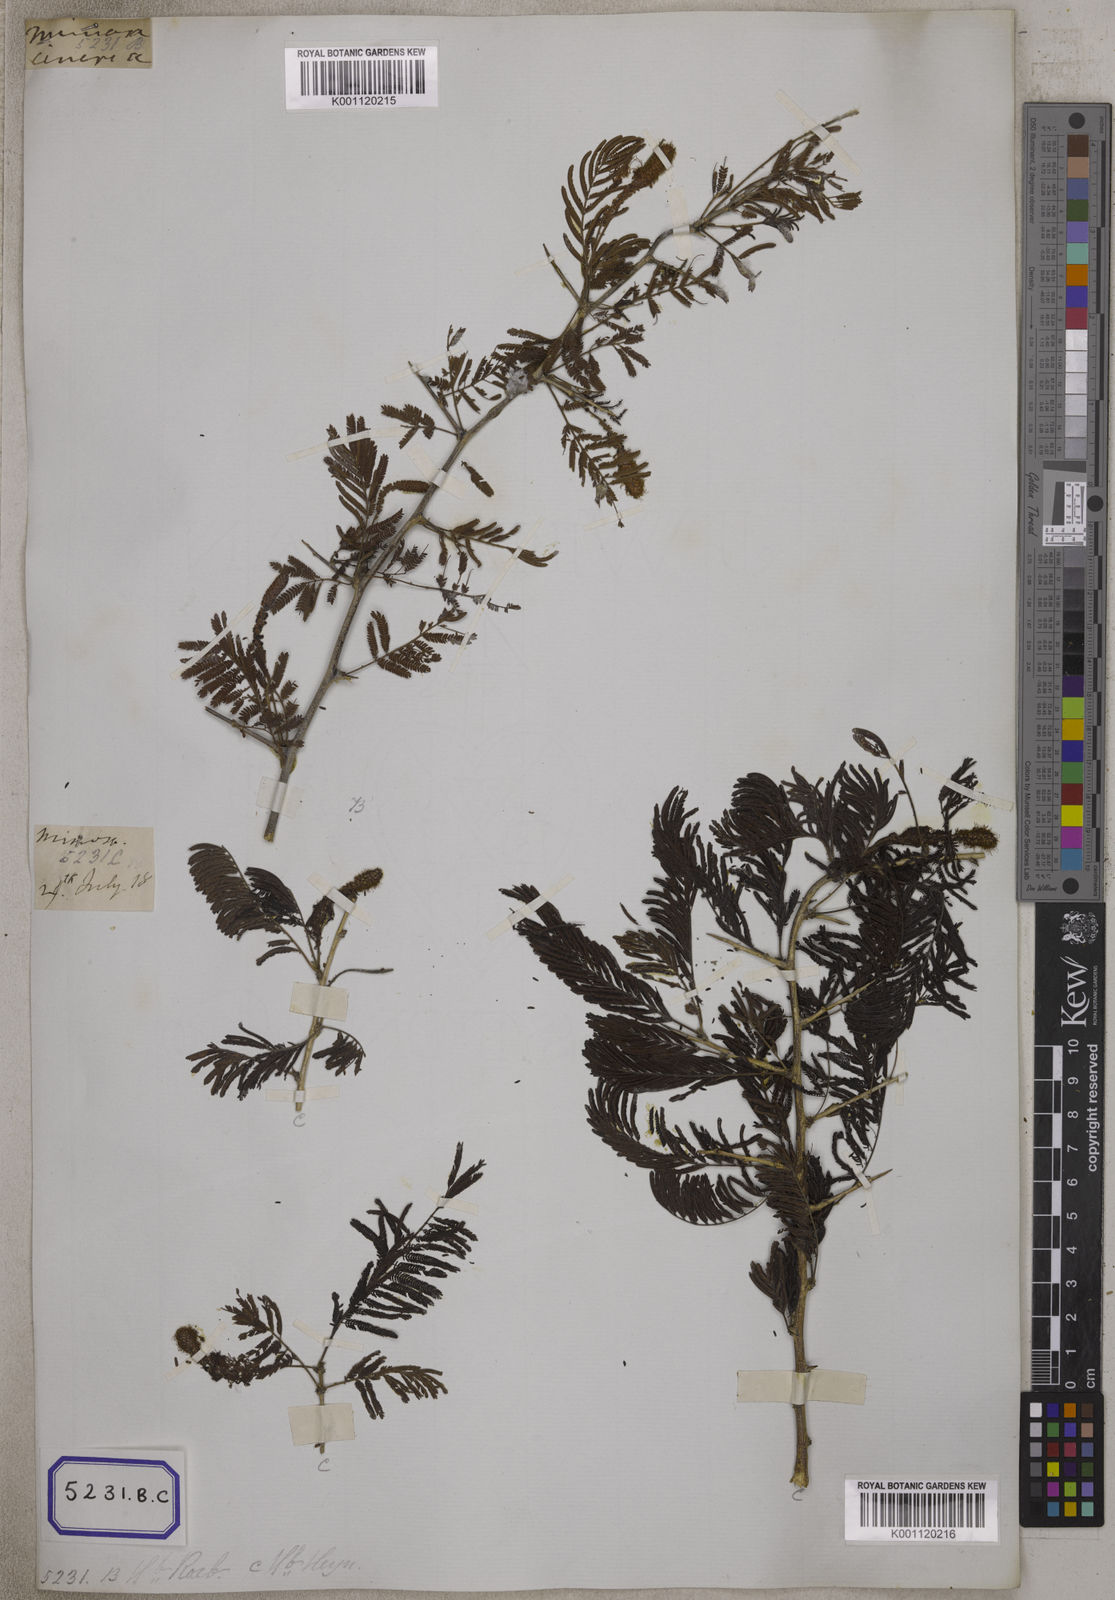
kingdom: Plantae
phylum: Tracheophyta
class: Magnoliopsida
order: Fabales
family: Fabaceae
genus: Dichrostachys
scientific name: Dichrostachys cinerea
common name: Sicklebush
